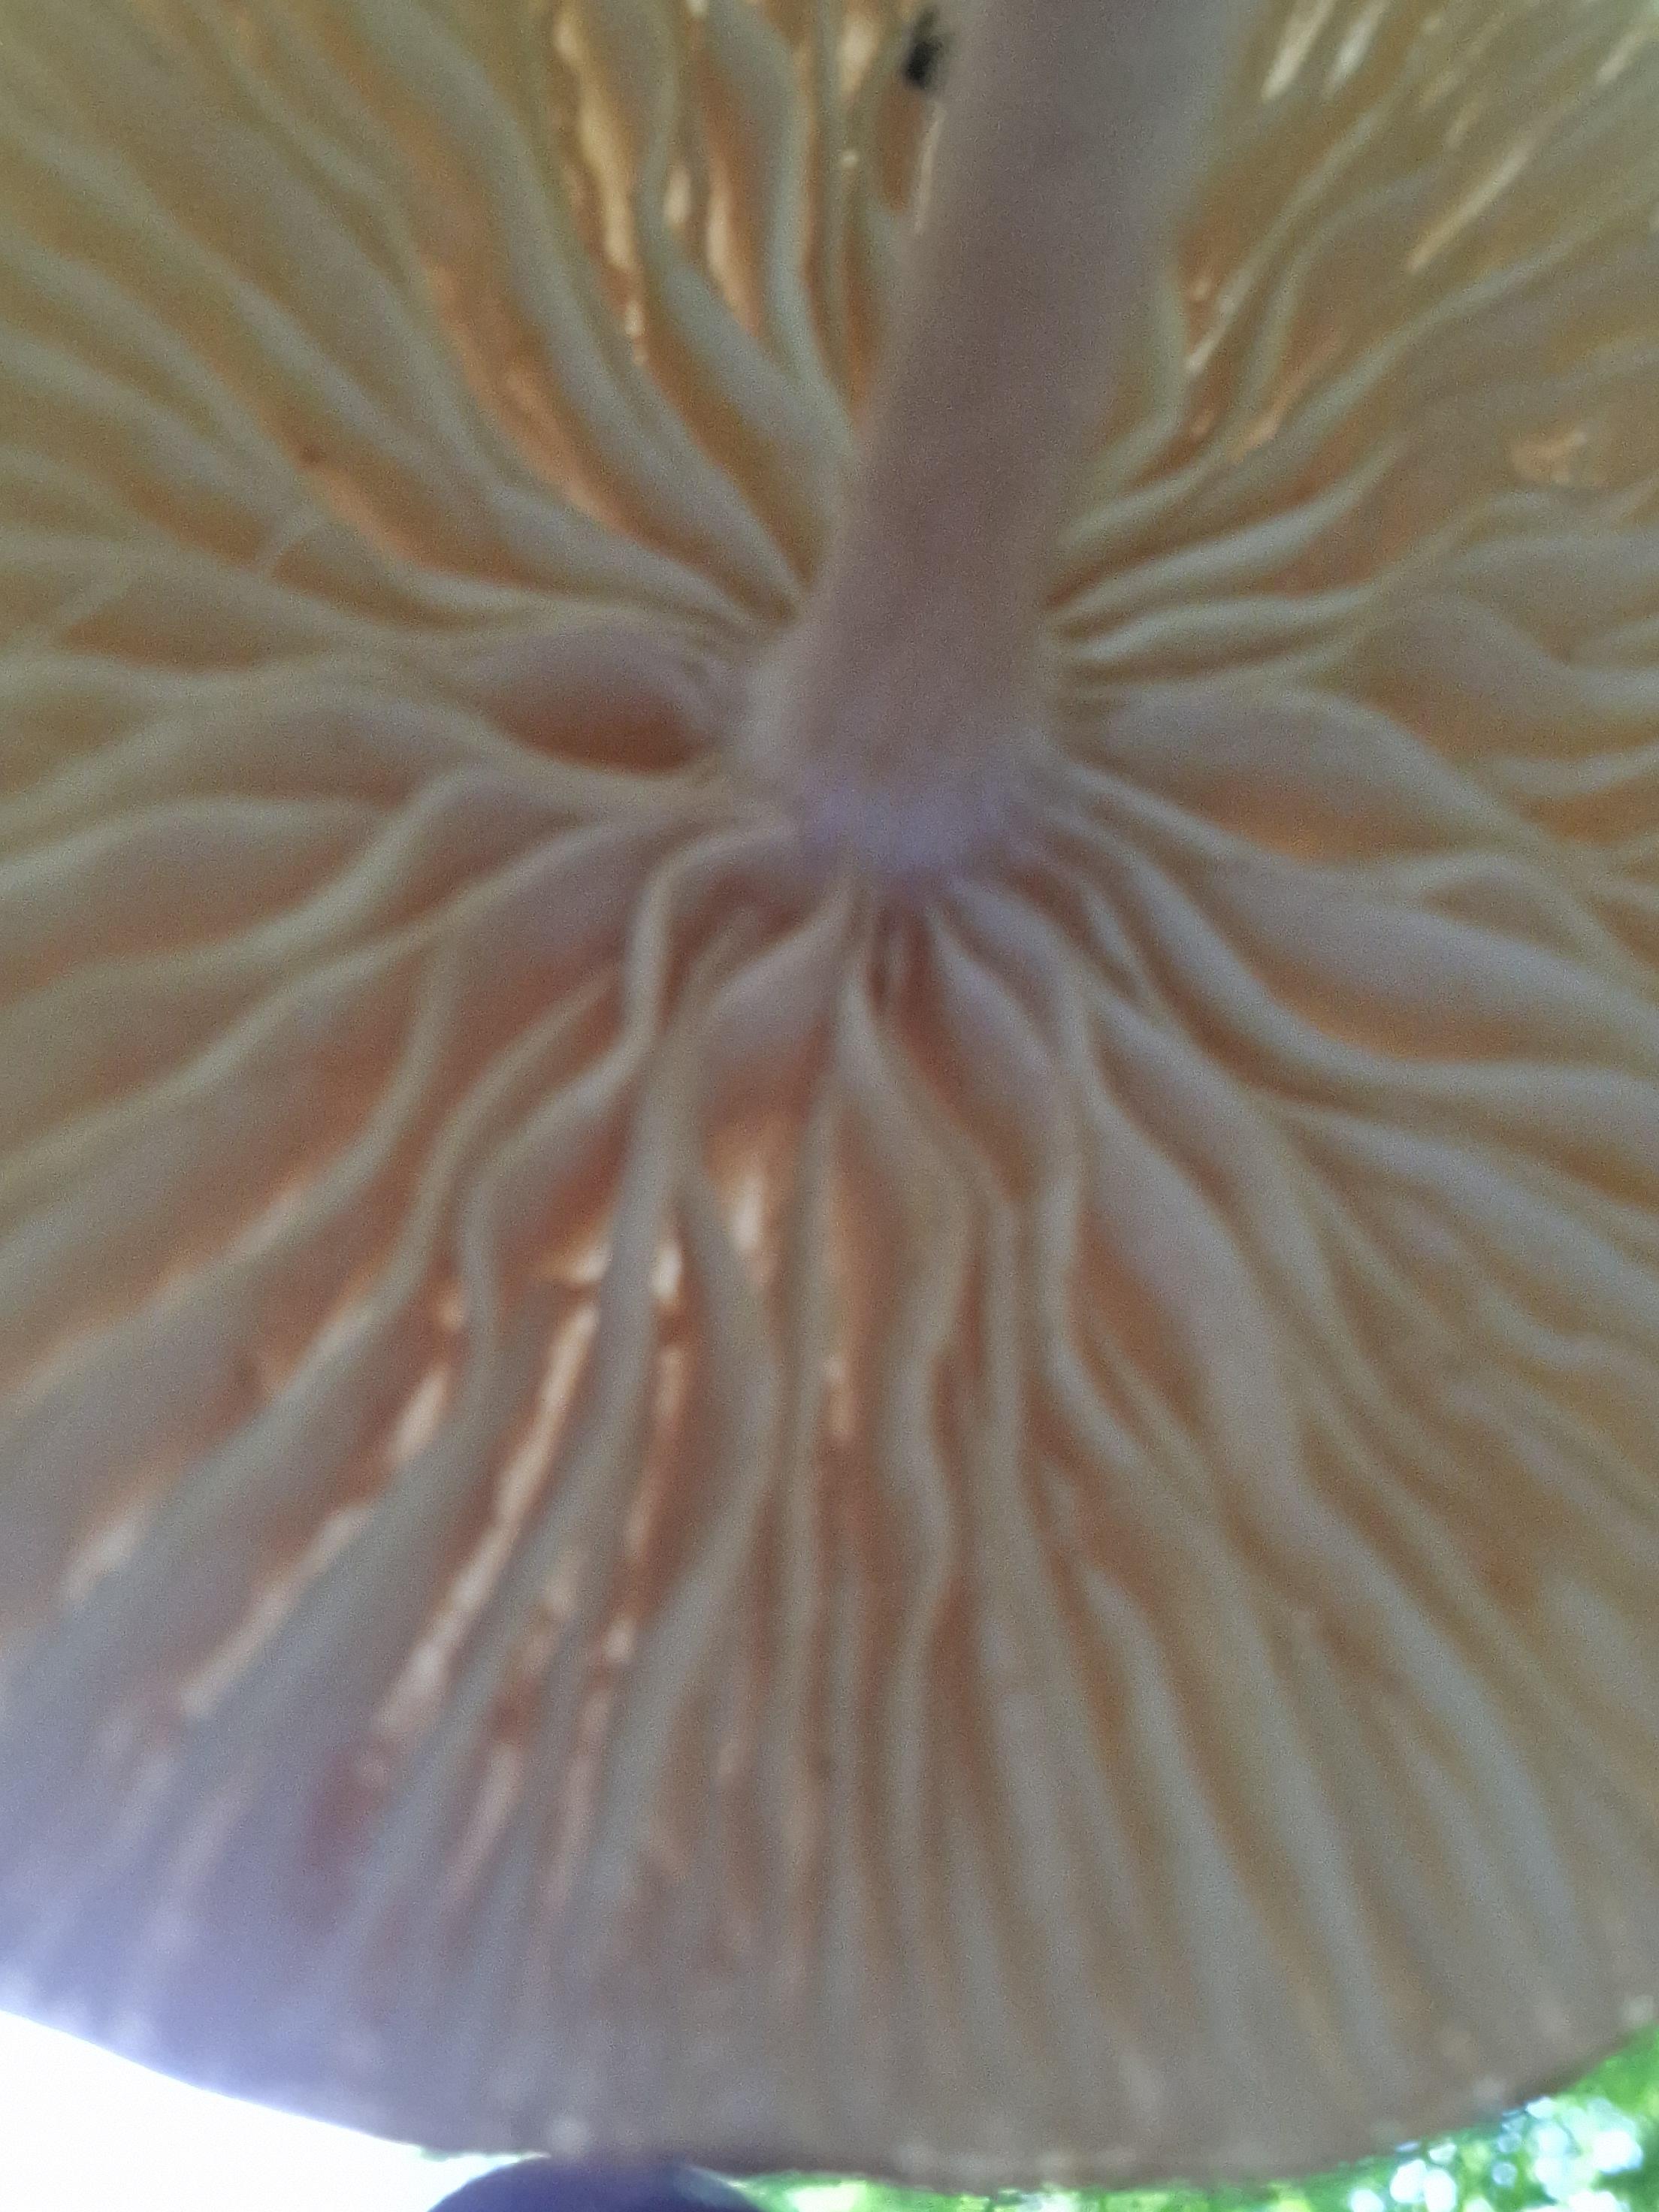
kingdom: Fungi
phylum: Basidiomycota
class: Agaricomycetes
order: Agaricales
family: Physalacriaceae
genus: Hymenopellis
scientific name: Hymenopellis radicata
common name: almindelig pælerodshat
